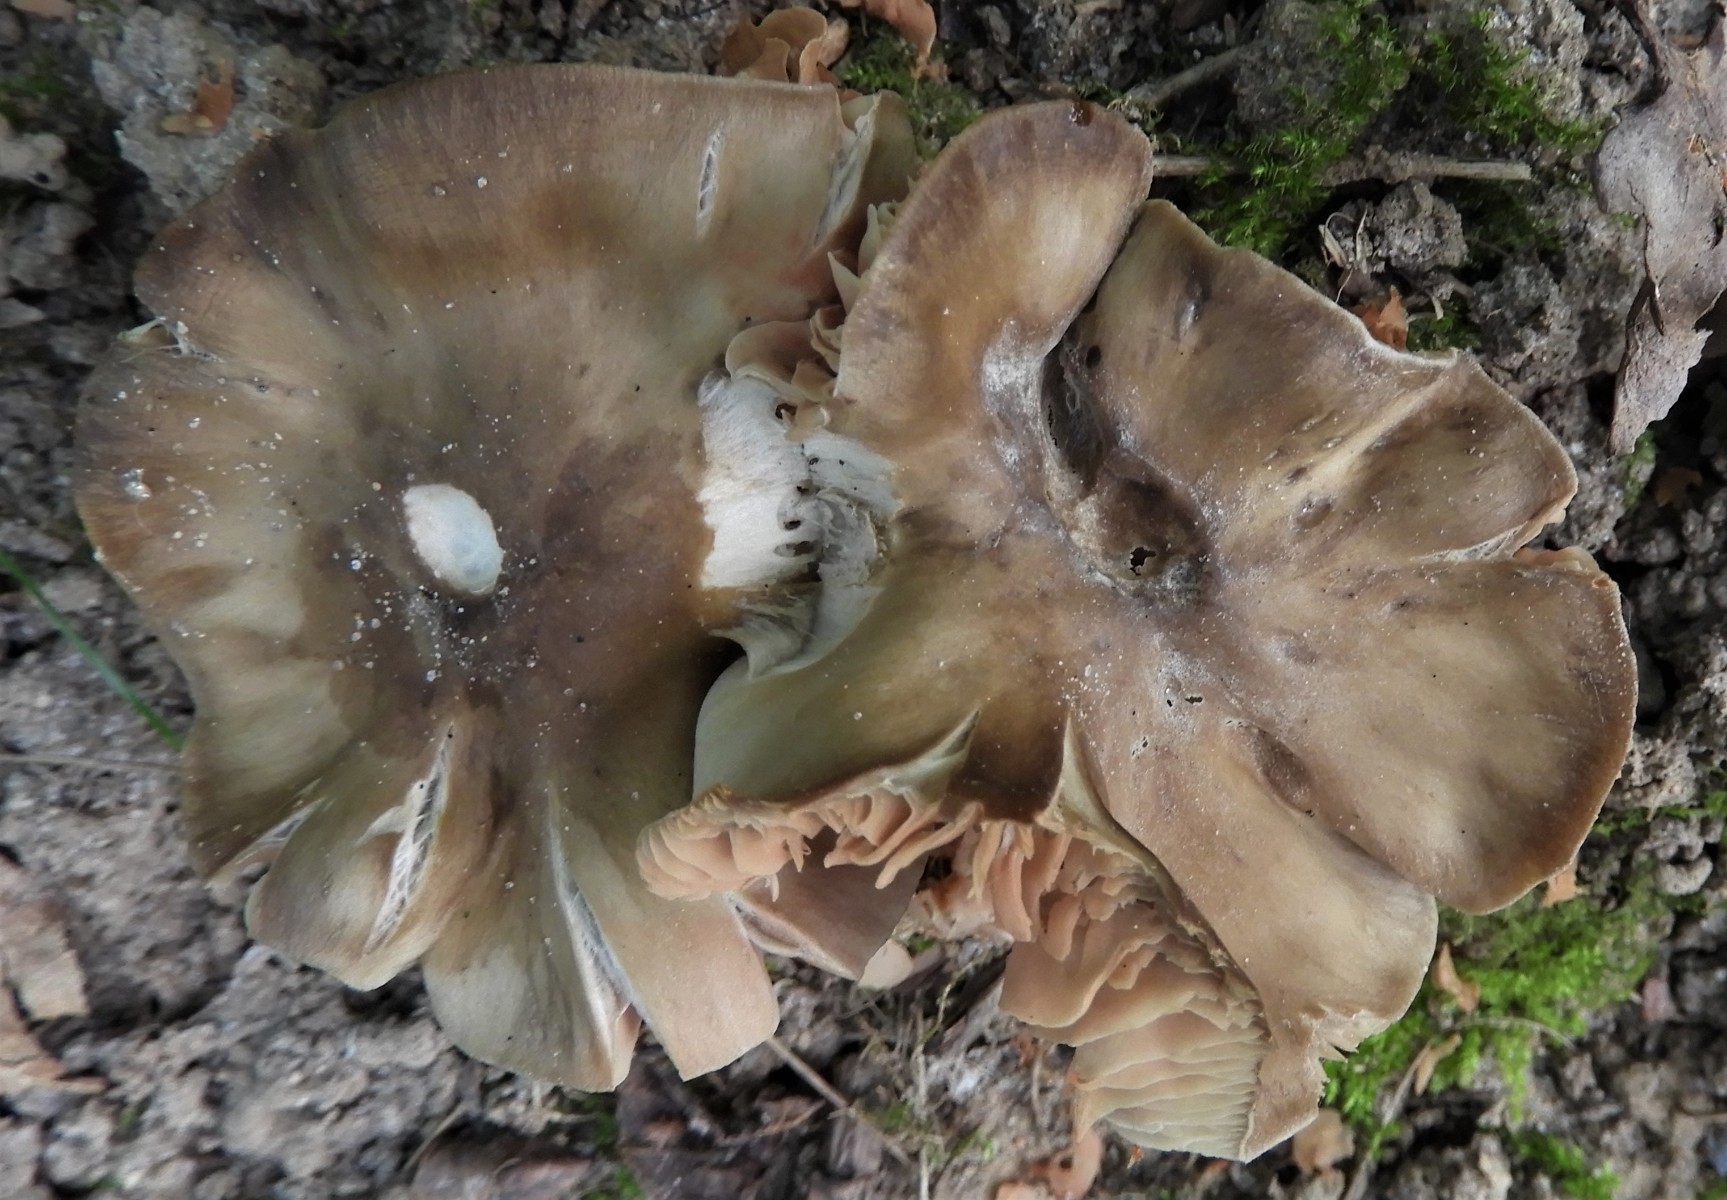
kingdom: Fungi
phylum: Basidiomycota
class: Agaricomycetes
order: Agaricales
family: Entolomataceae
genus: Entoloma
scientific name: Entoloma
